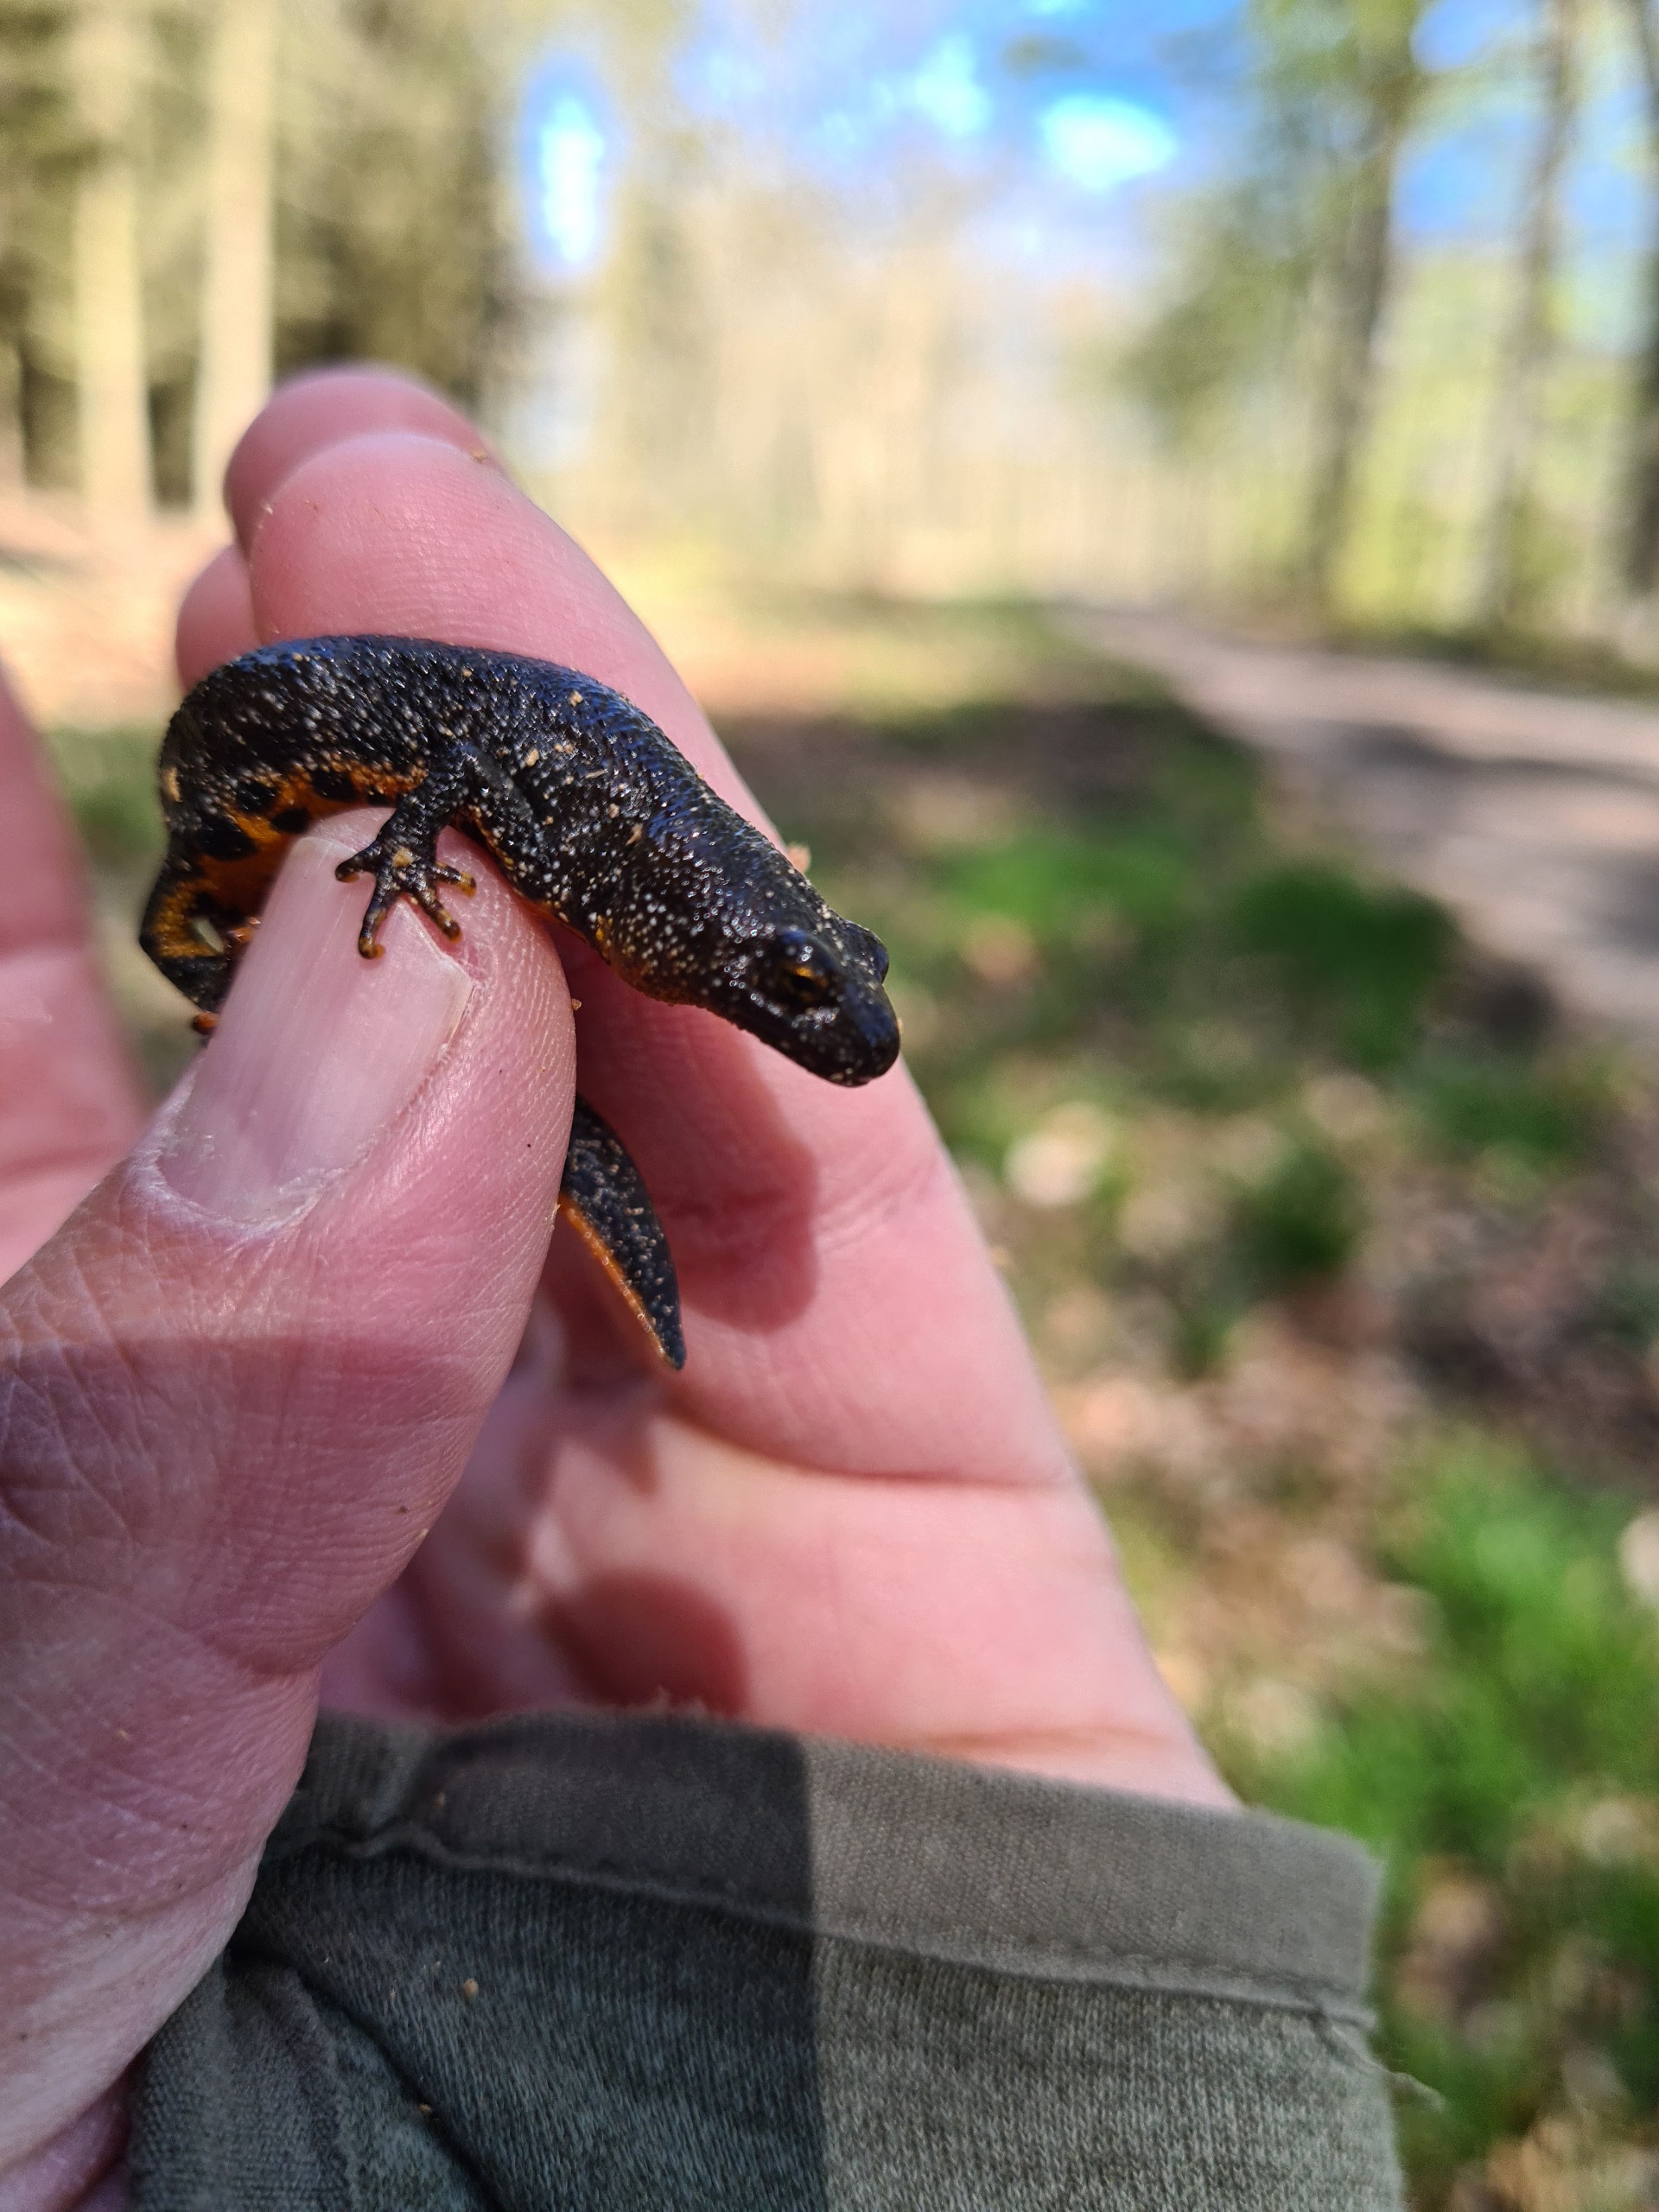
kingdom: Animalia
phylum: Chordata
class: Amphibia
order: Caudata
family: Salamandridae
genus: Triturus
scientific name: Triturus cristatus
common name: Stor vandsalamander
